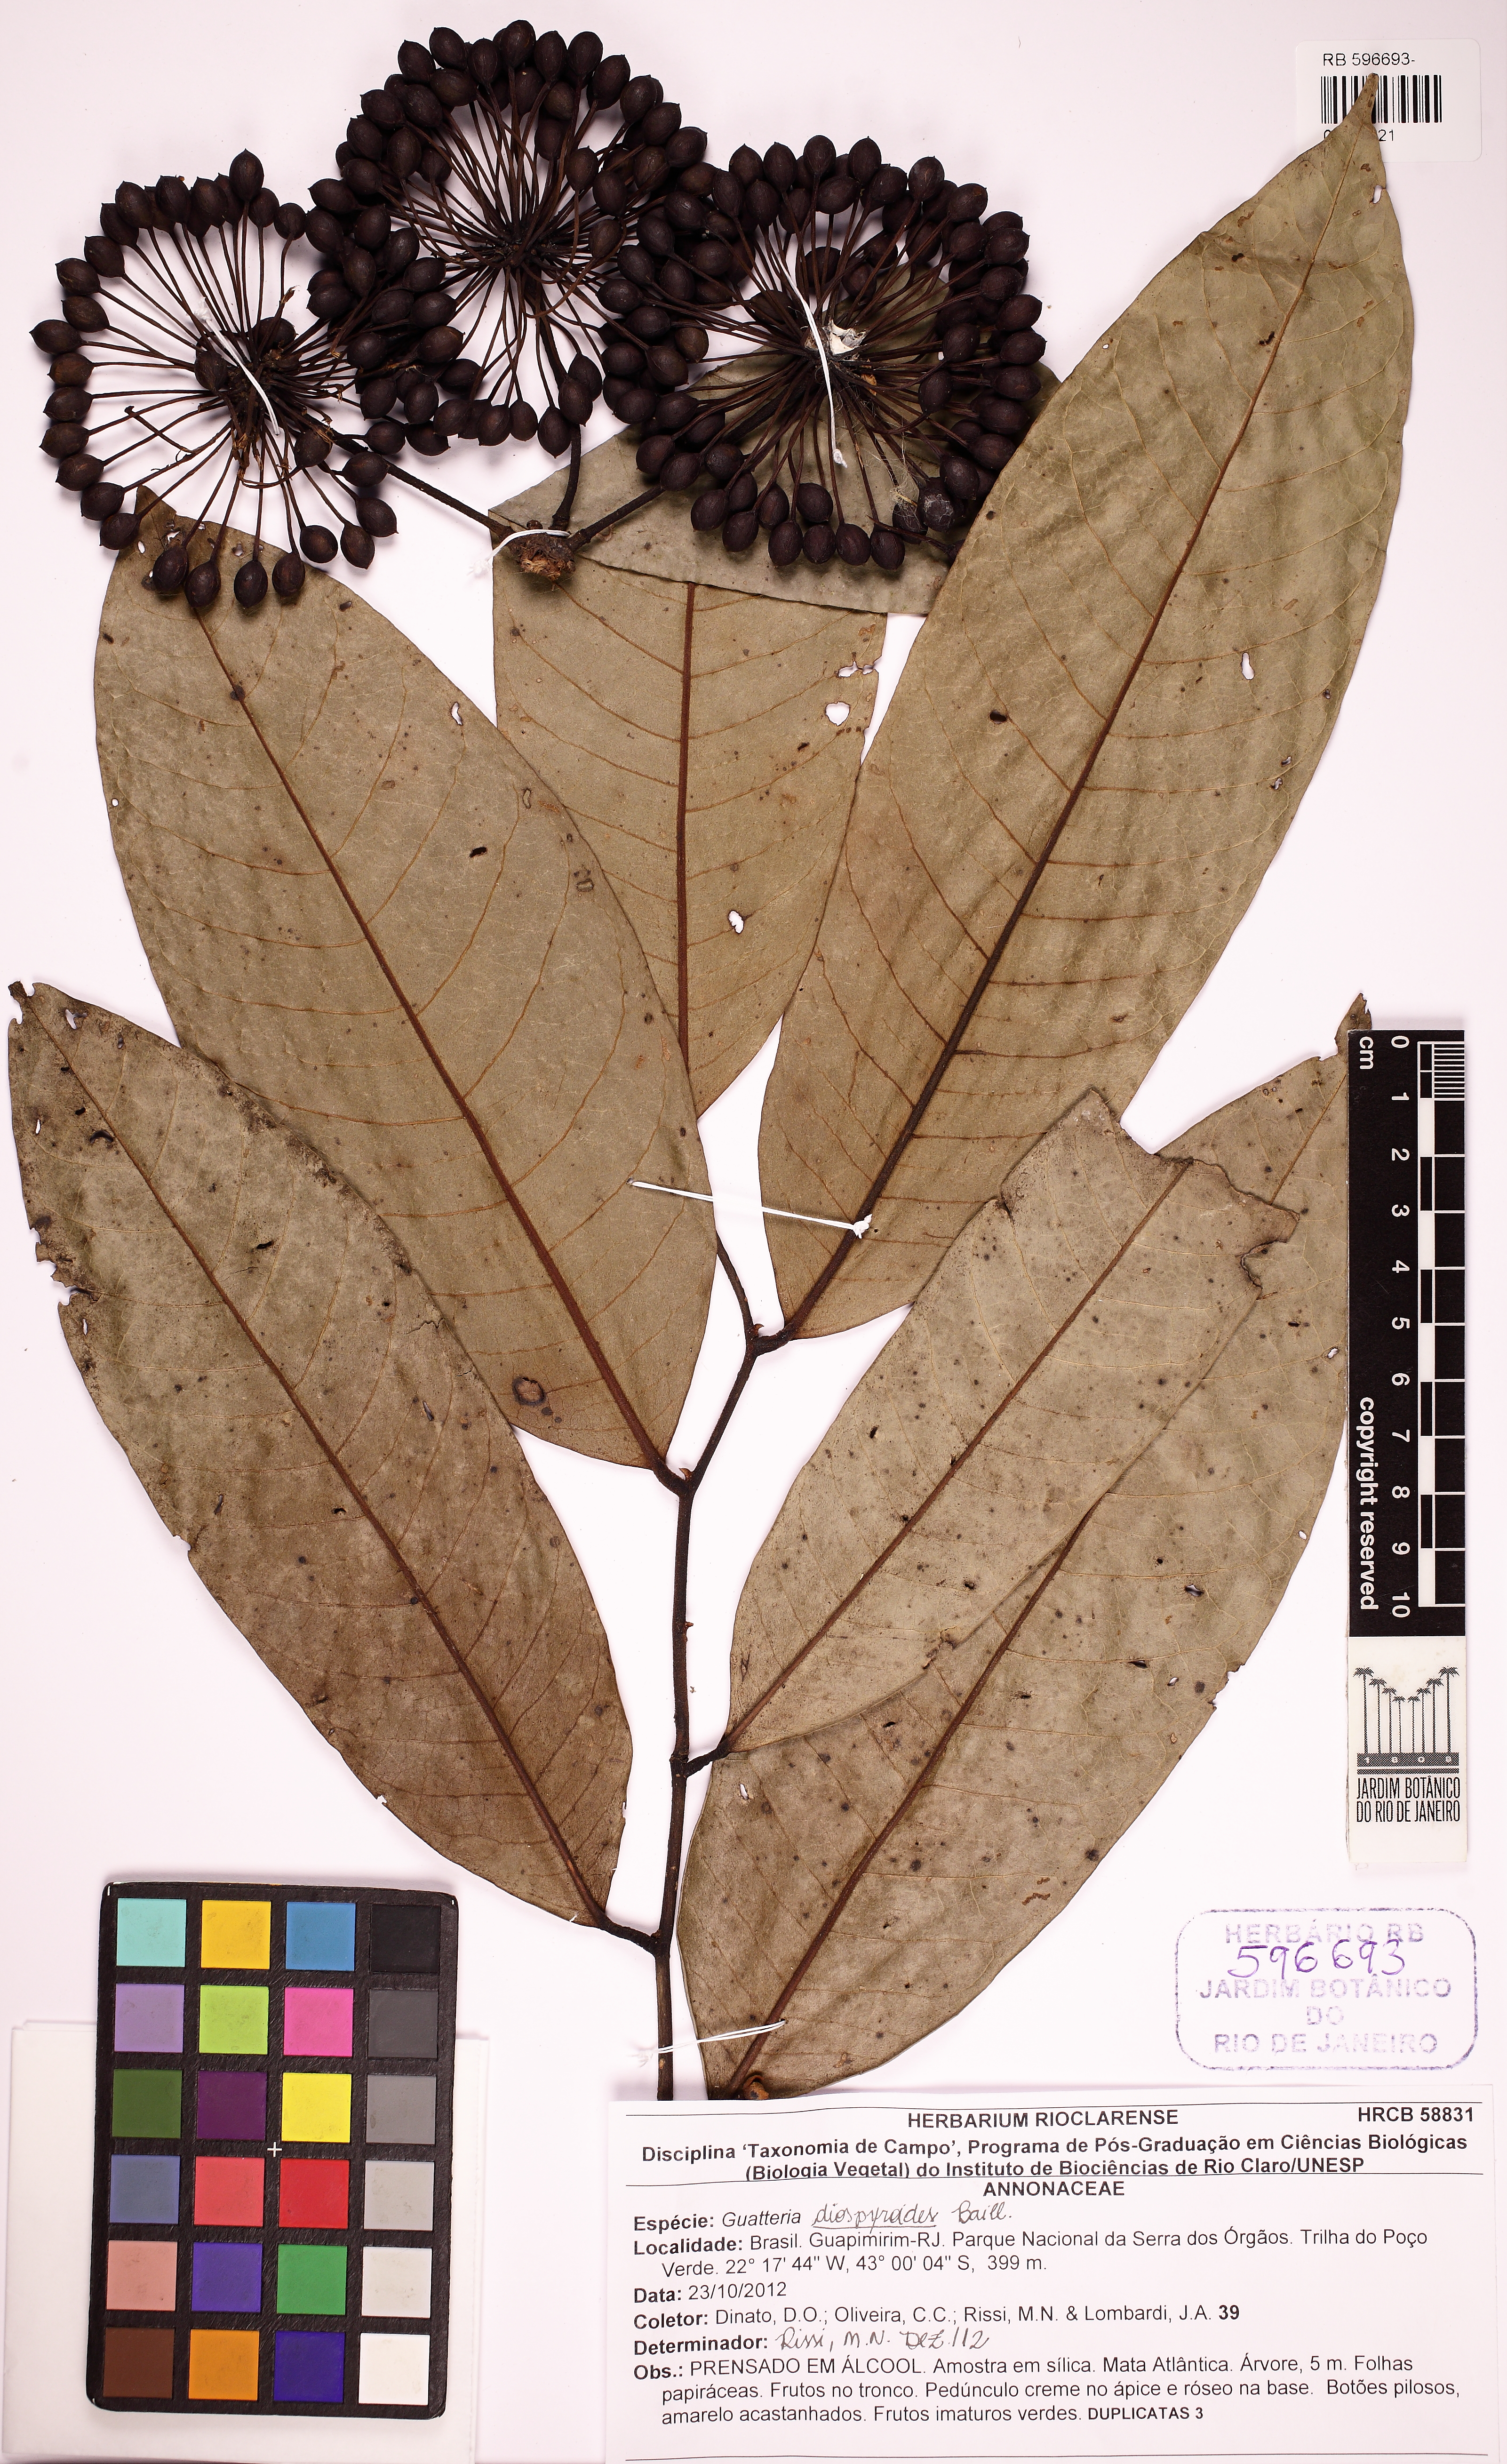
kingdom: Plantae
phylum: Tracheophyta
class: Magnoliopsida
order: Magnoliales
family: Annonaceae
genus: Guatteria
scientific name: Guatteria ferruginea
